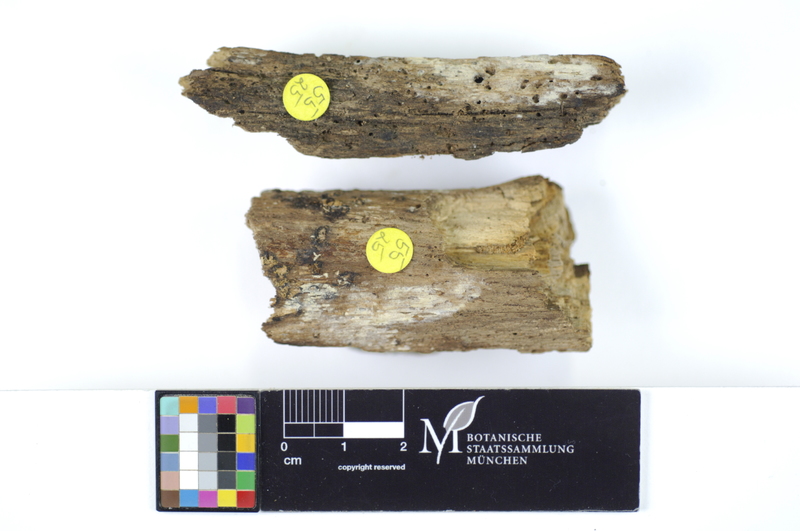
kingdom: Fungi
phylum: Basidiomycota
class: Agaricomycetes
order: Polyporales
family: Sparassidaceae
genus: Crustoderma
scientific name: Crustoderma cryptocallimon
